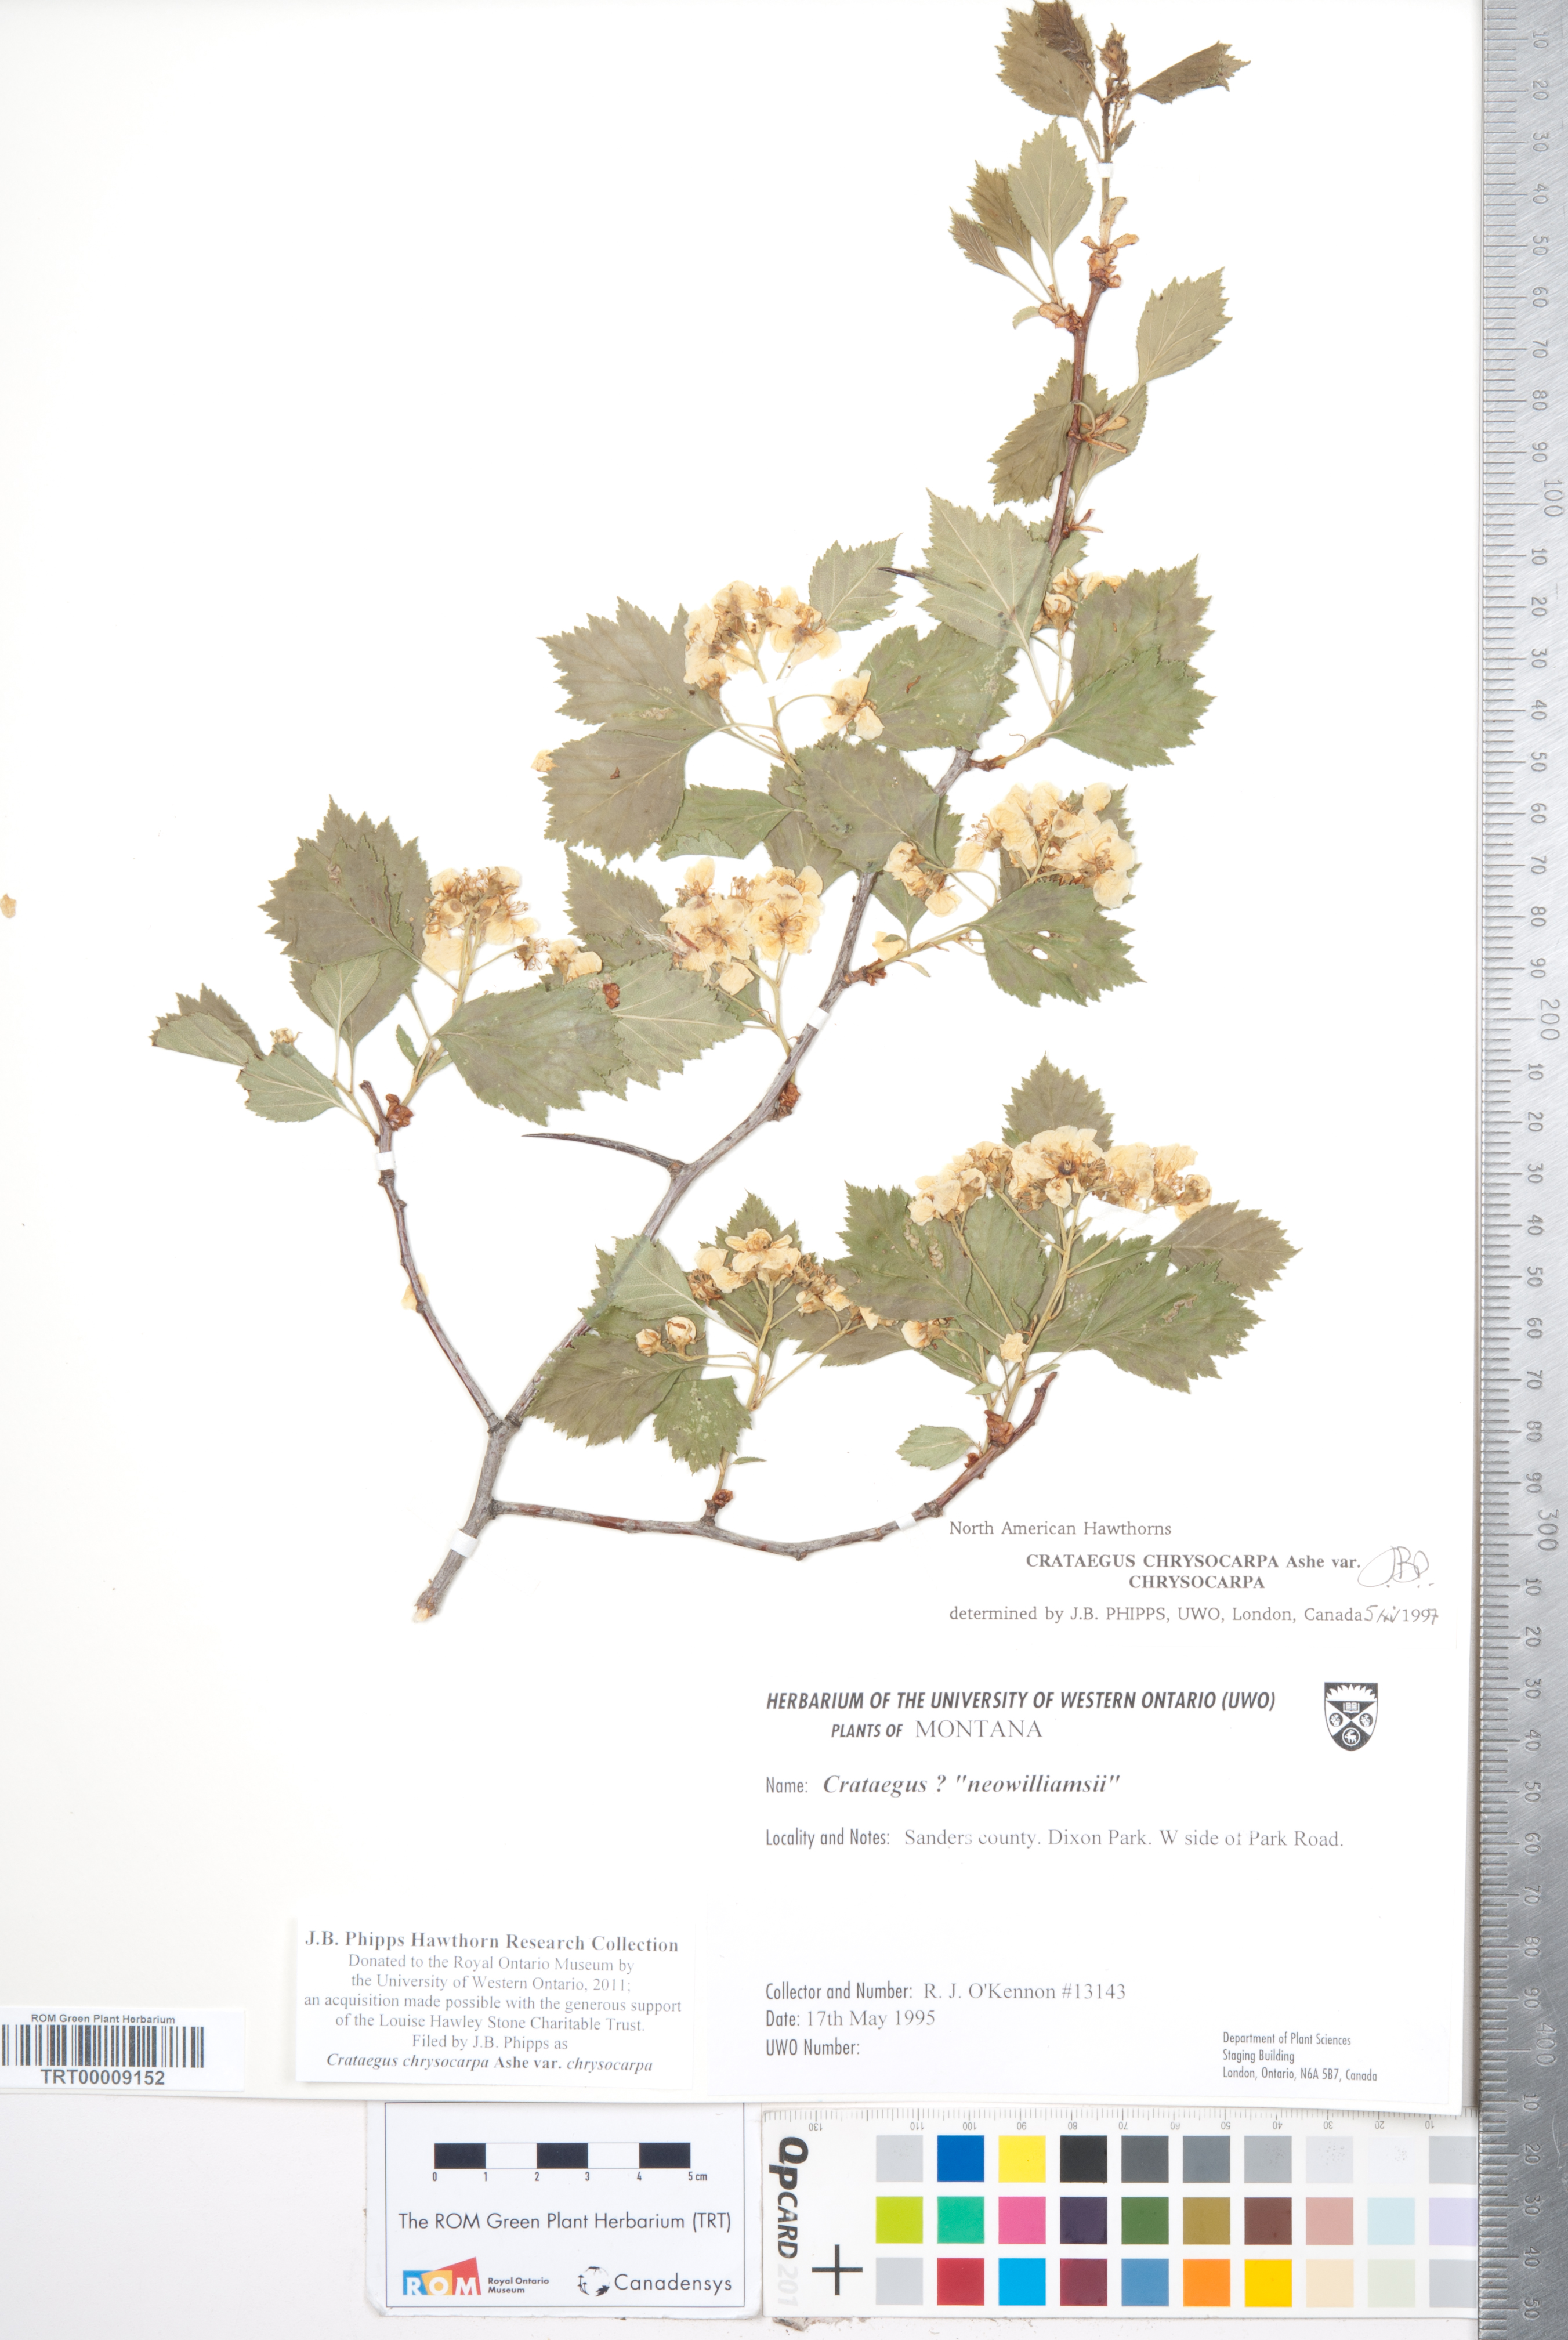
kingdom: Plantae
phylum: Tracheophyta
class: Magnoliopsida
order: Rosales
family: Rosaceae
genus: Crataegus
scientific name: Crataegus chrysocarpa
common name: Fire-berry hawthorn
